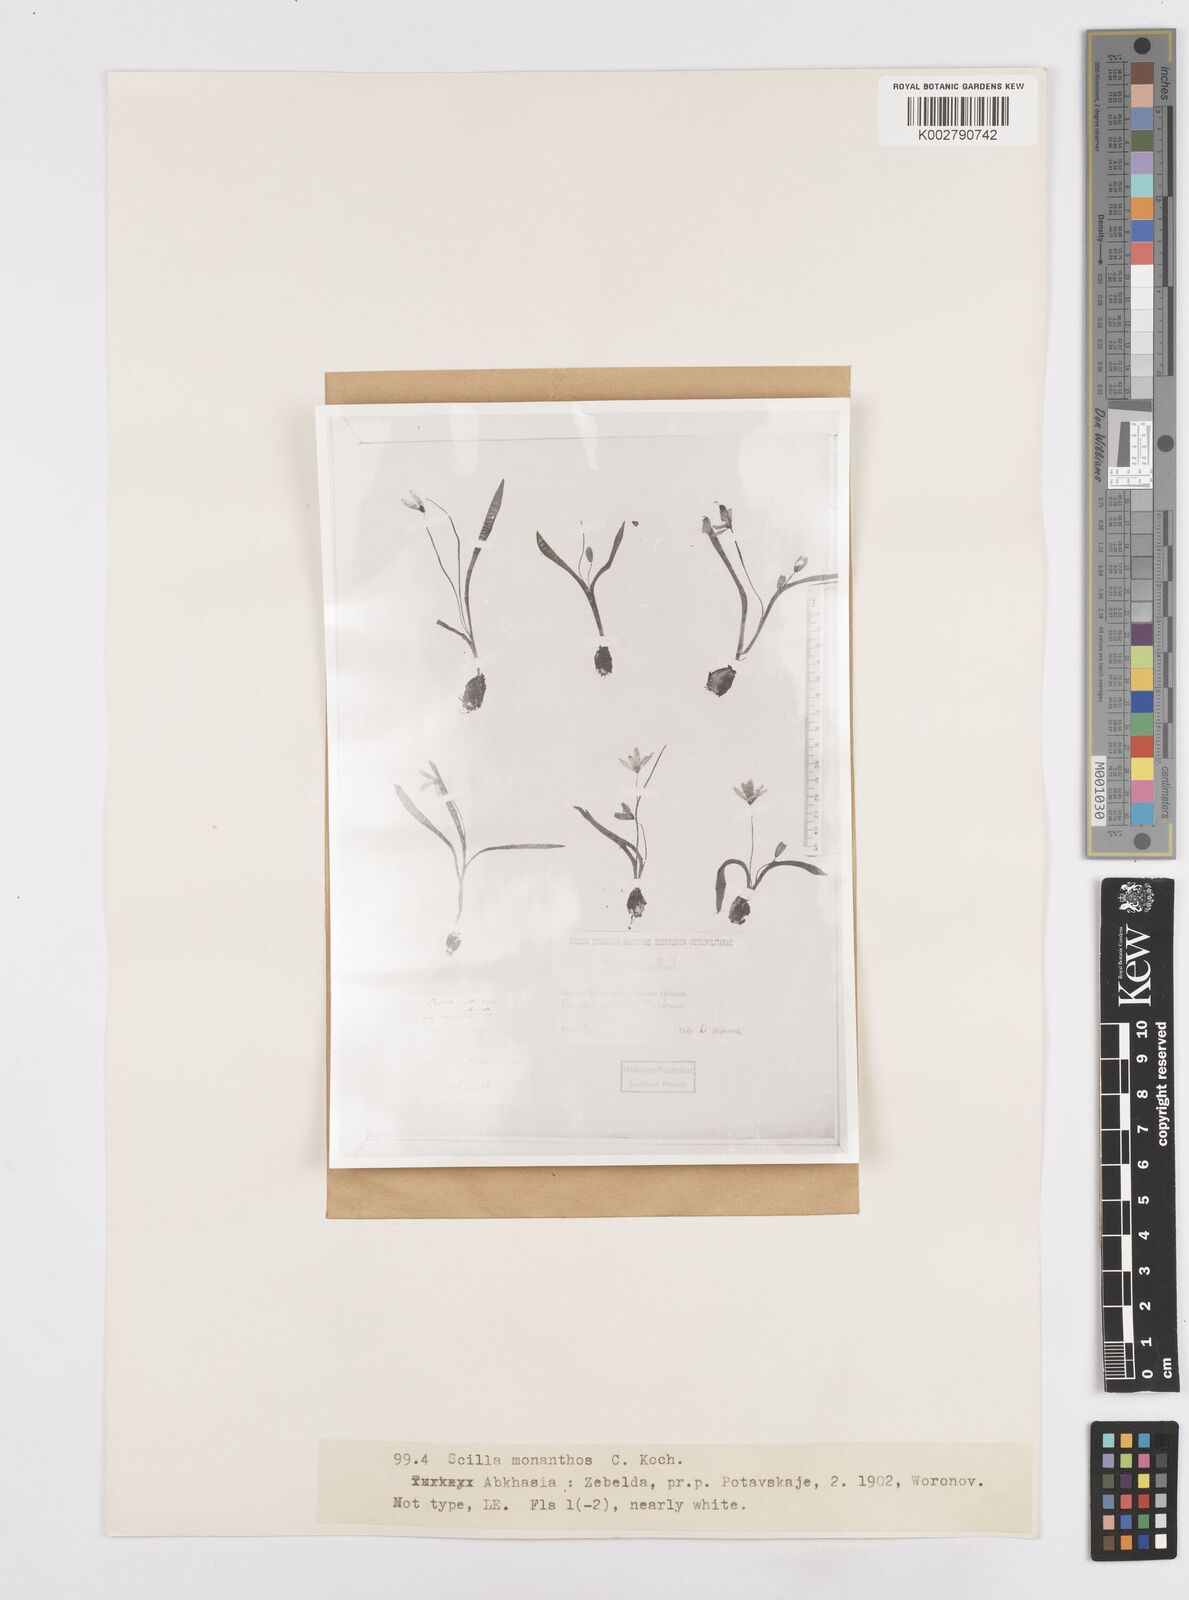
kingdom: Plantae
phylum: Tracheophyta
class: Liliopsida
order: Asparagales
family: Asparagaceae
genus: Scilla
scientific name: Scilla monanthos
